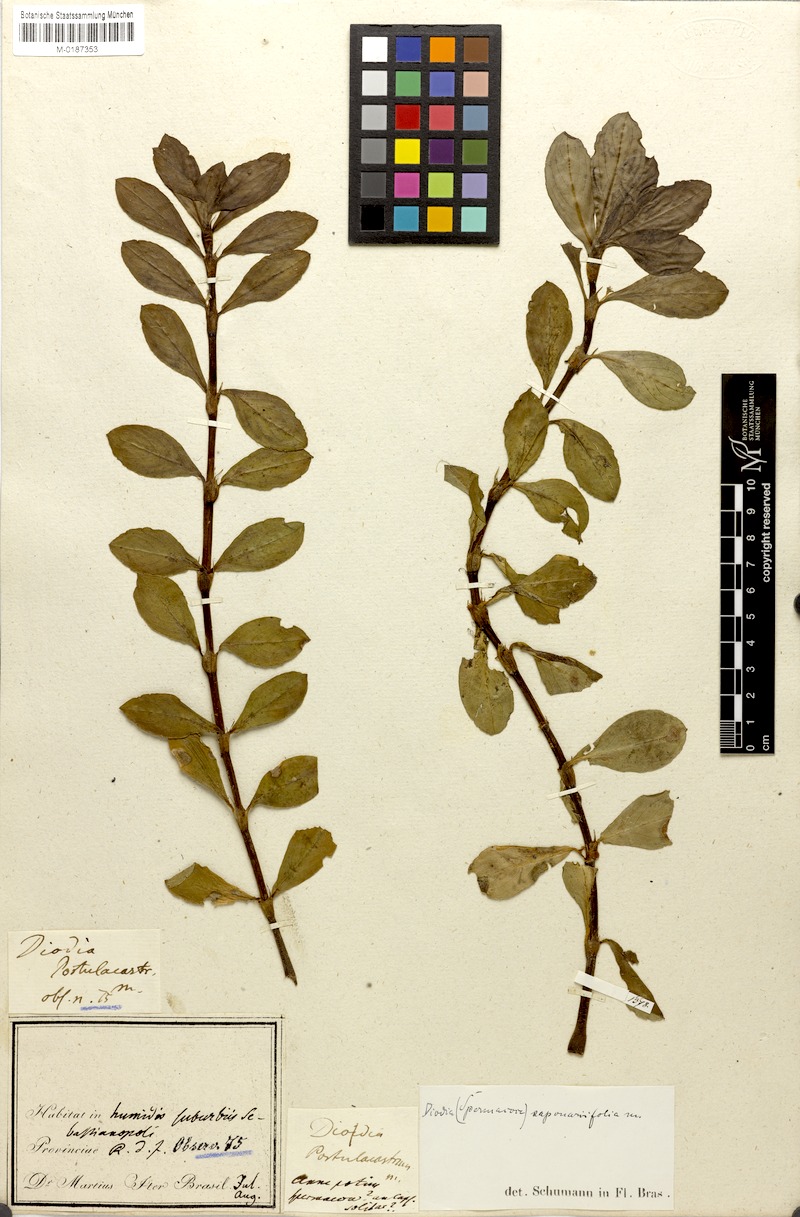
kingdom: Plantae
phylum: Tracheophyta
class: Magnoliopsida
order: Gentianales
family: Rubiaceae
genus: Diodia
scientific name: Diodia saponariifolia
